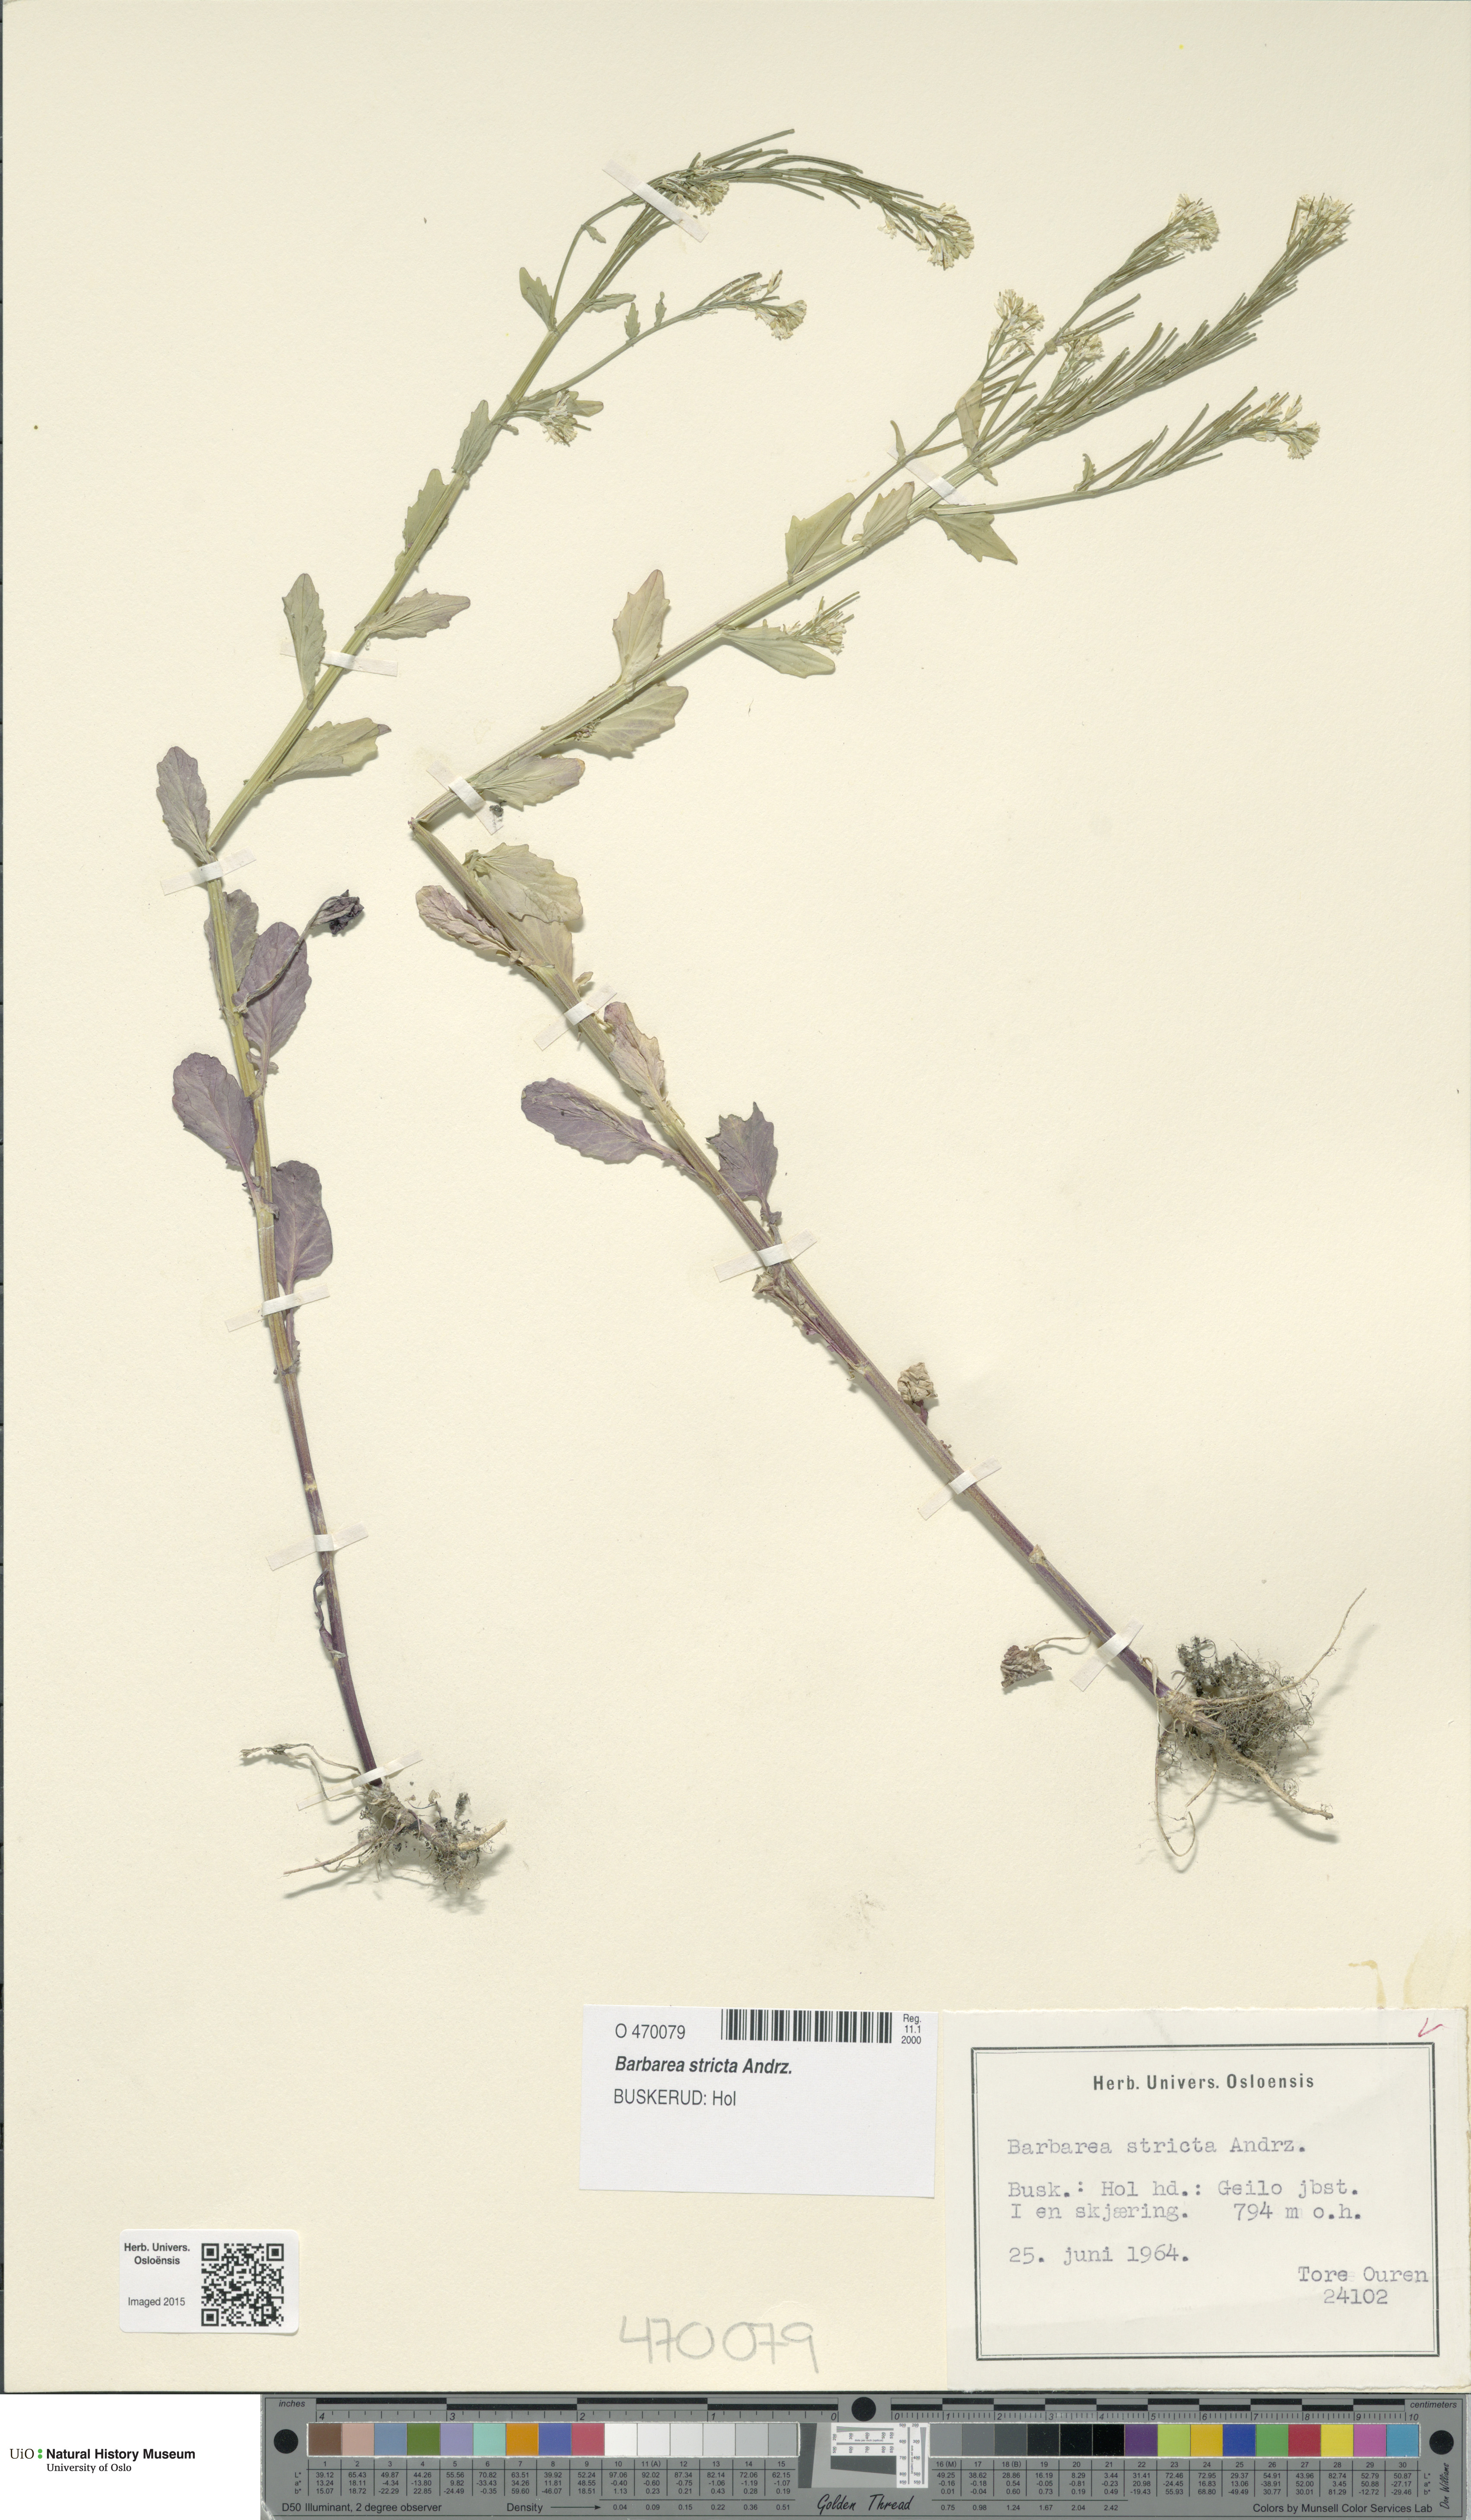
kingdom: Plantae
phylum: Tracheophyta
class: Magnoliopsida
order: Brassicales
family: Brassicaceae
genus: Barbarea
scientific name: Barbarea stricta
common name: Small-flowered winter-cress
